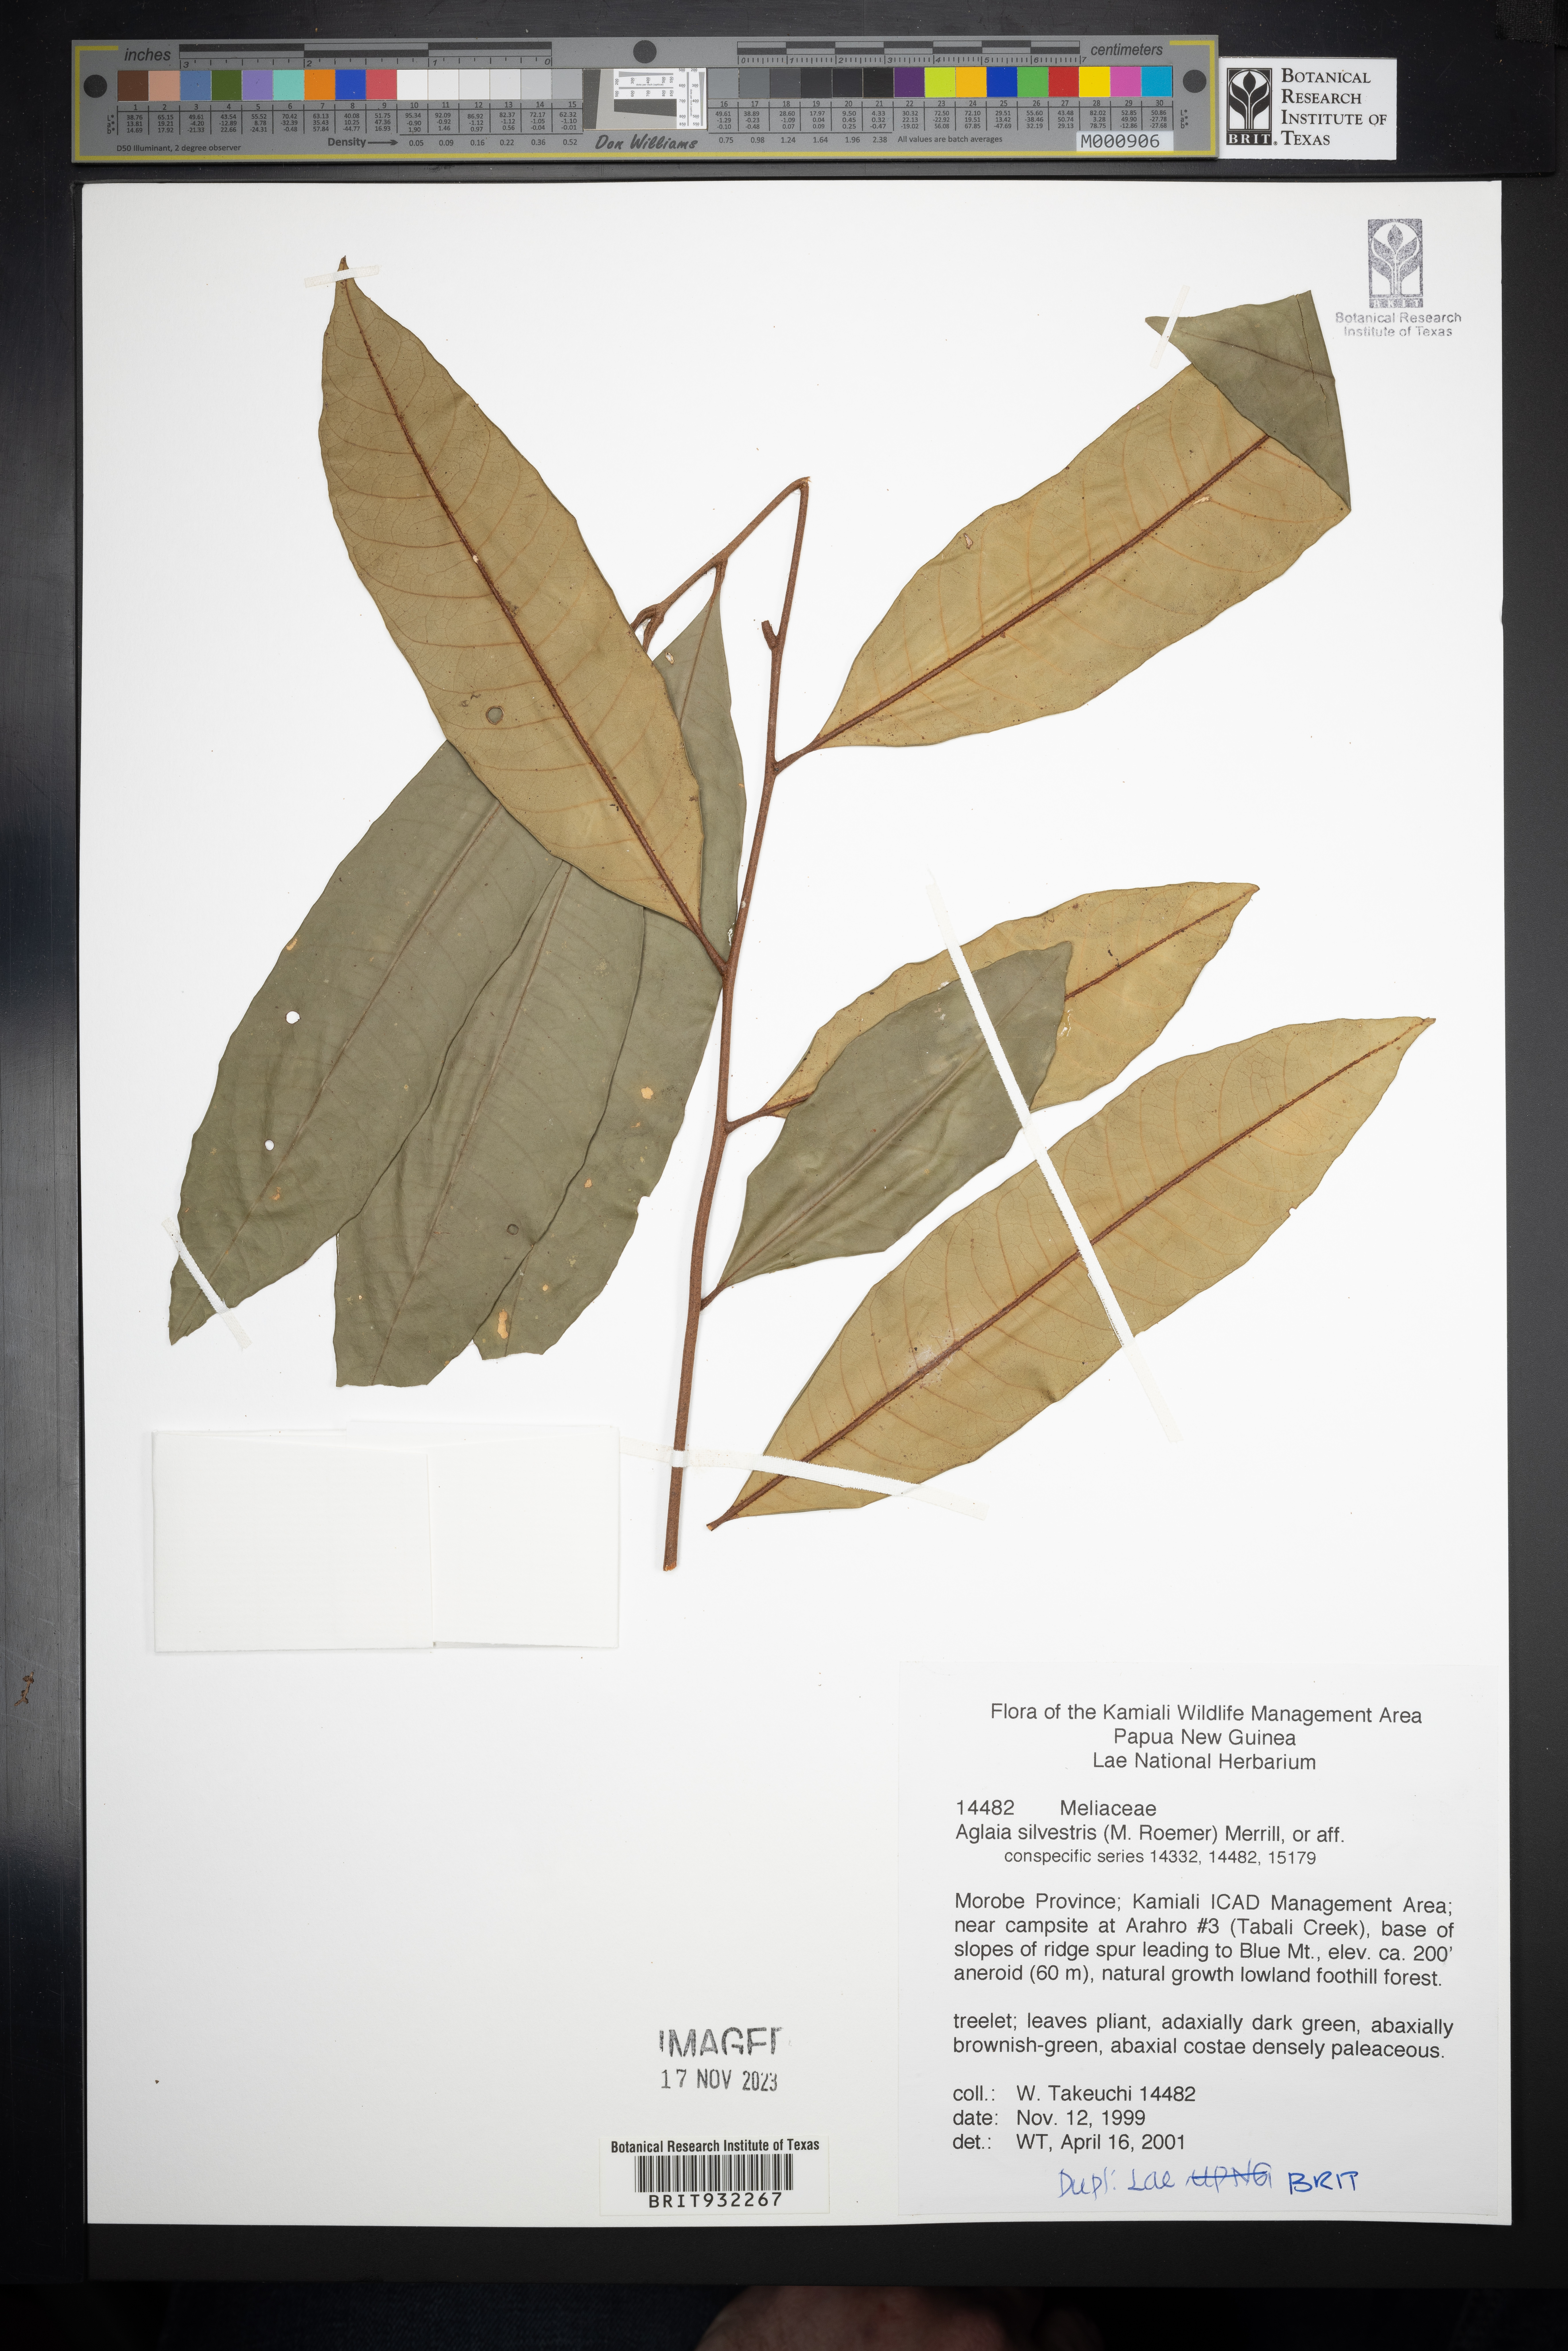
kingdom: Plantae
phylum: Tracheophyta
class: Magnoliopsida
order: Sapindales
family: Meliaceae
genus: Aglaia
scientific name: Aglaia
